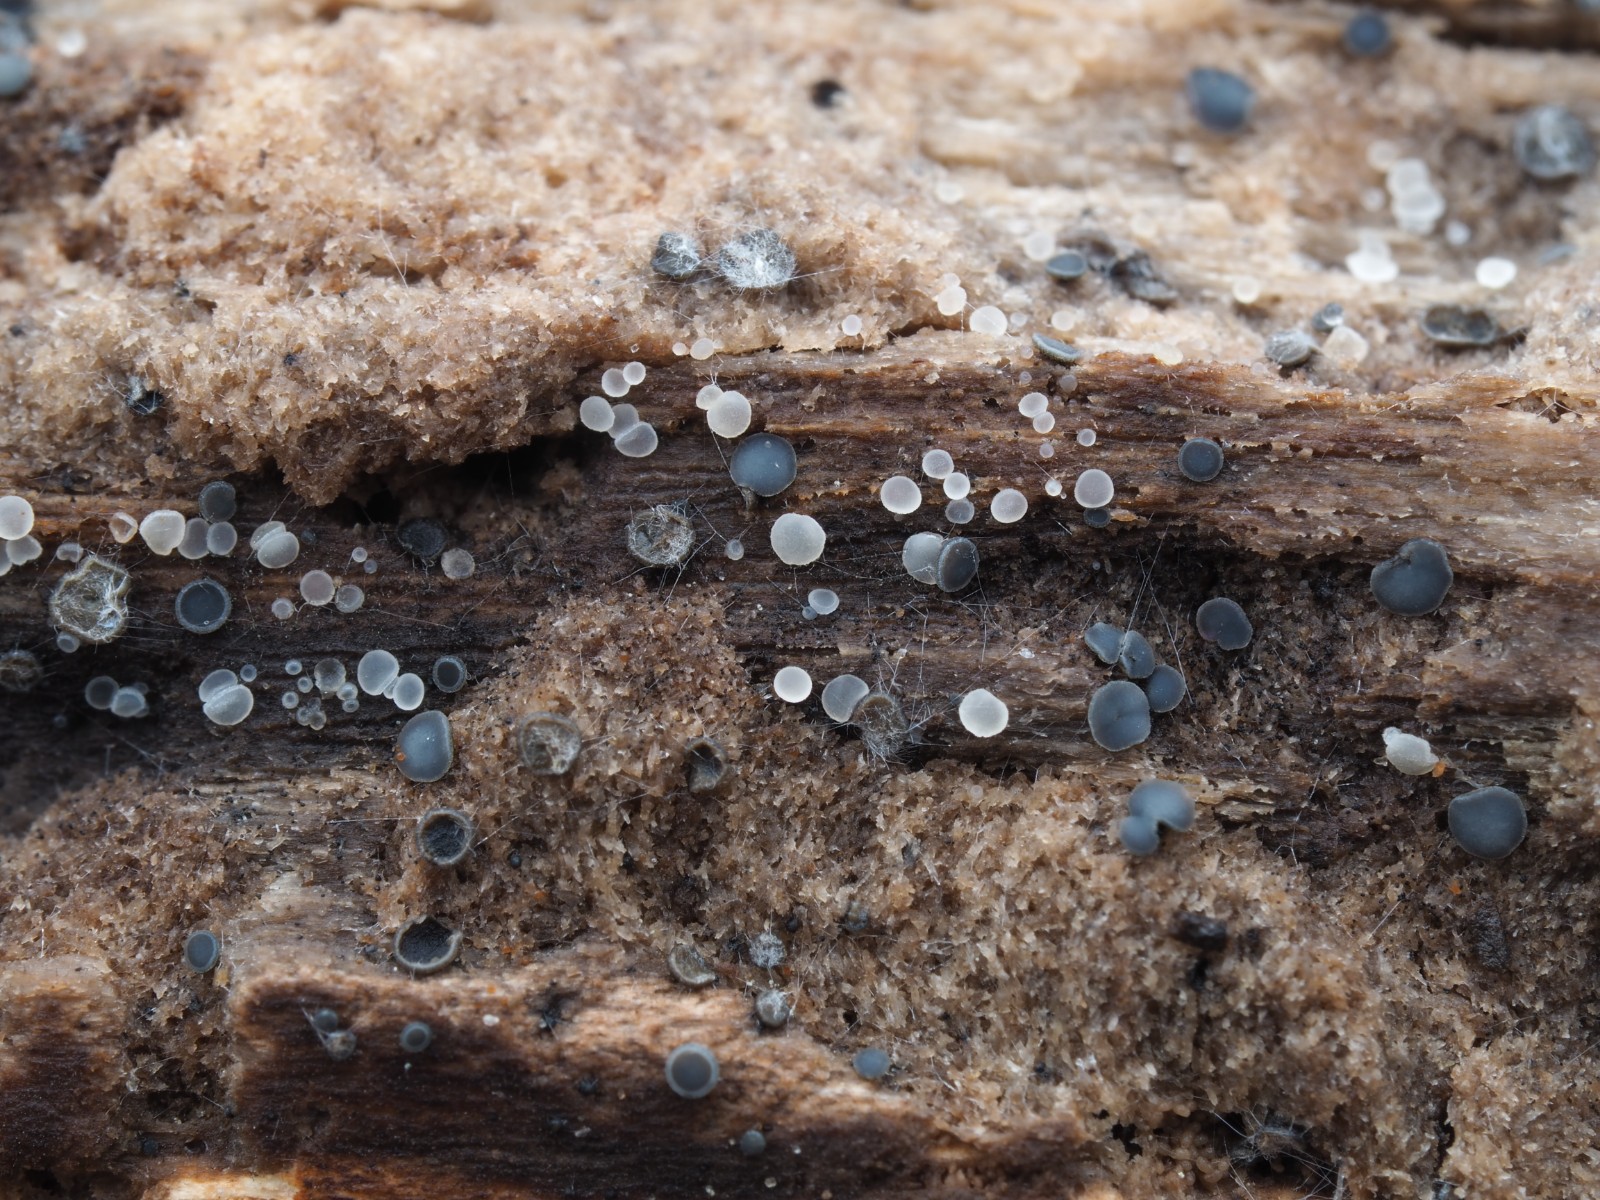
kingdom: Fungi
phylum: Ascomycota
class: Leotiomycetes
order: Helotiales
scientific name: Helotiales
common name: stilkskiveordenen
